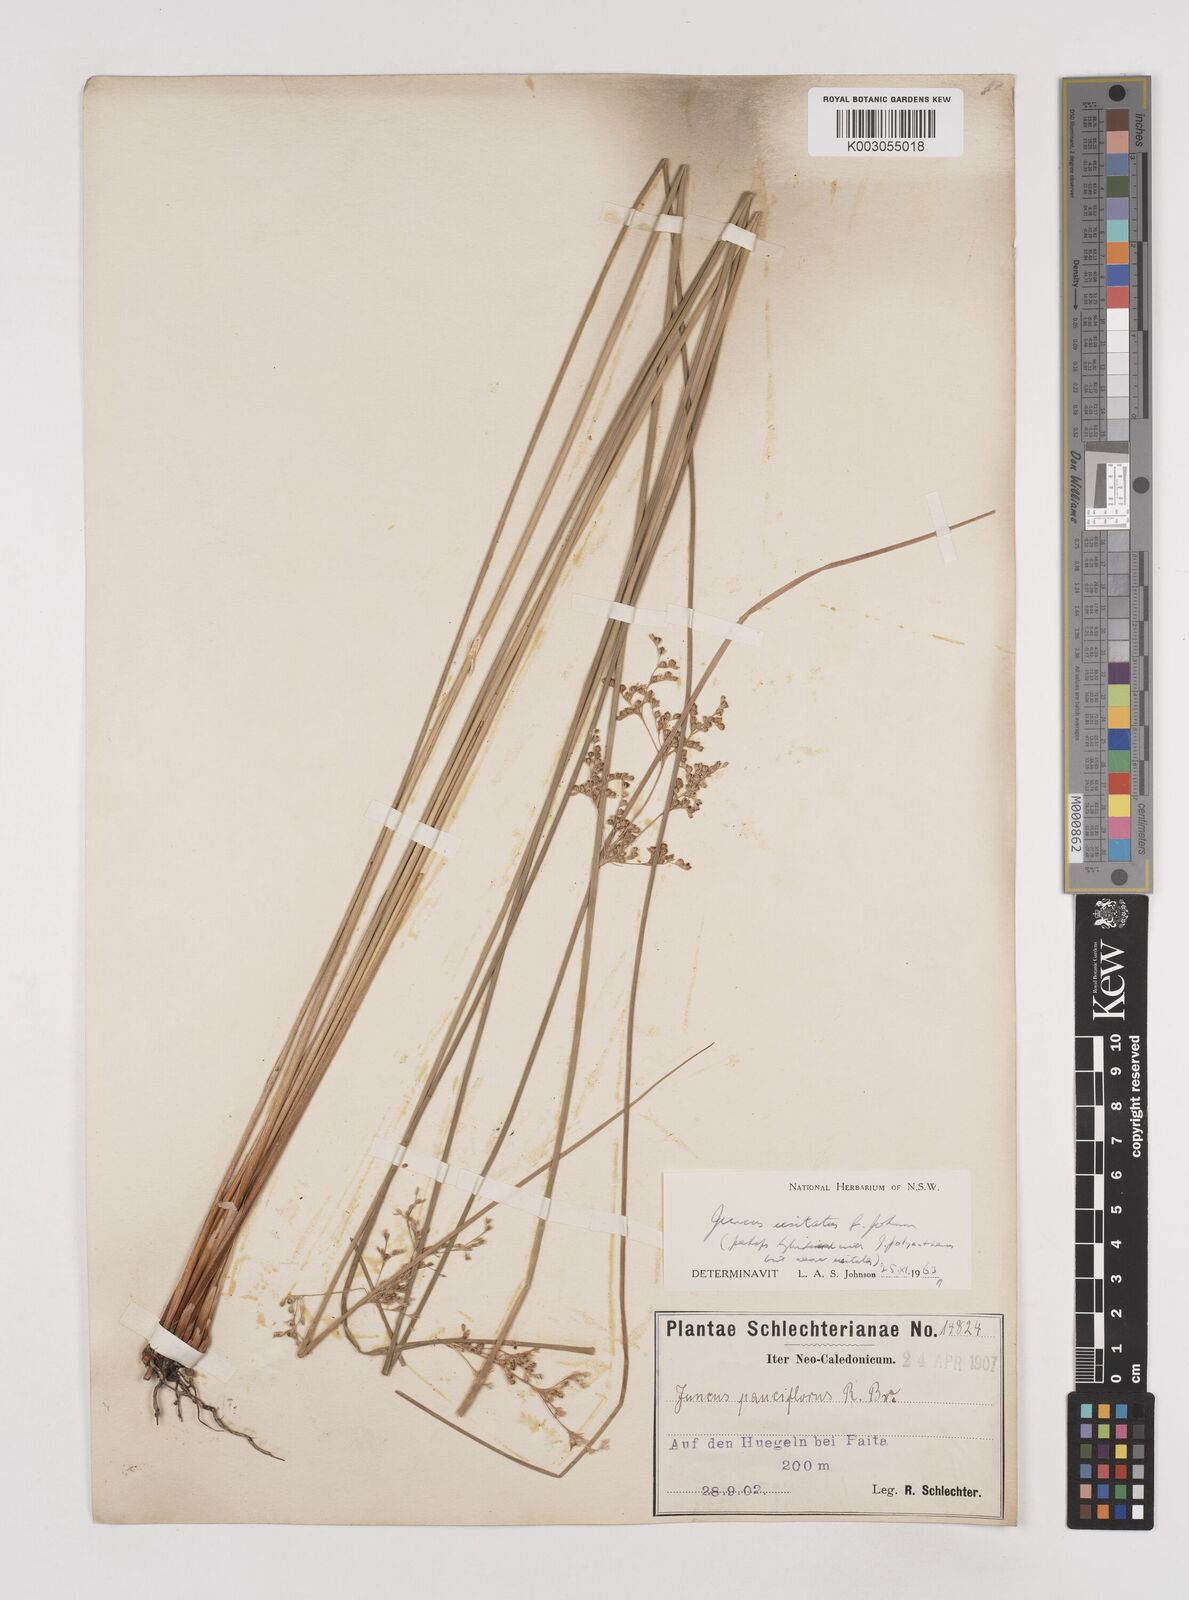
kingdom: Plantae
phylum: Tracheophyta
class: Liliopsida
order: Poales
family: Juncaceae
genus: Juncus
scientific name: Juncus usitatus
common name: Rush
